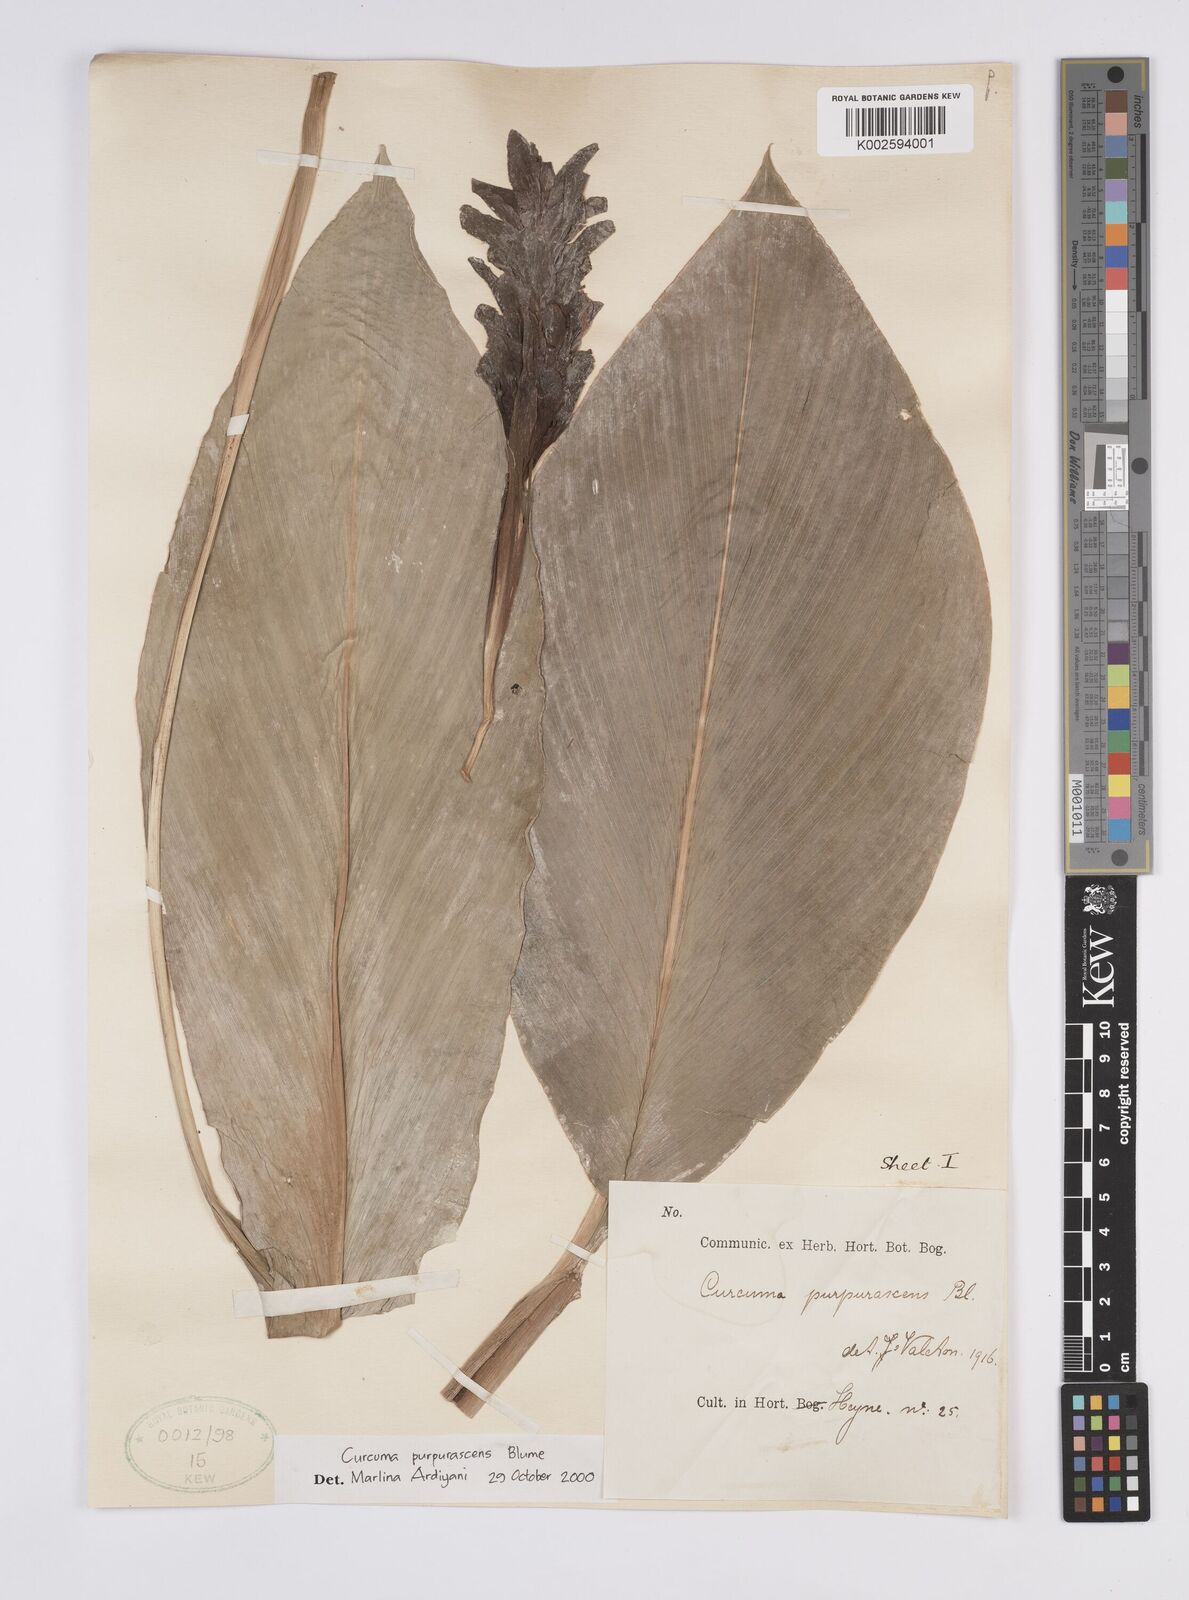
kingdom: Plantae
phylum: Tracheophyta
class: Liliopsida
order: Zingiberales
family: Zingiberaceae
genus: Curcuma
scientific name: Curcuma purpurascens
